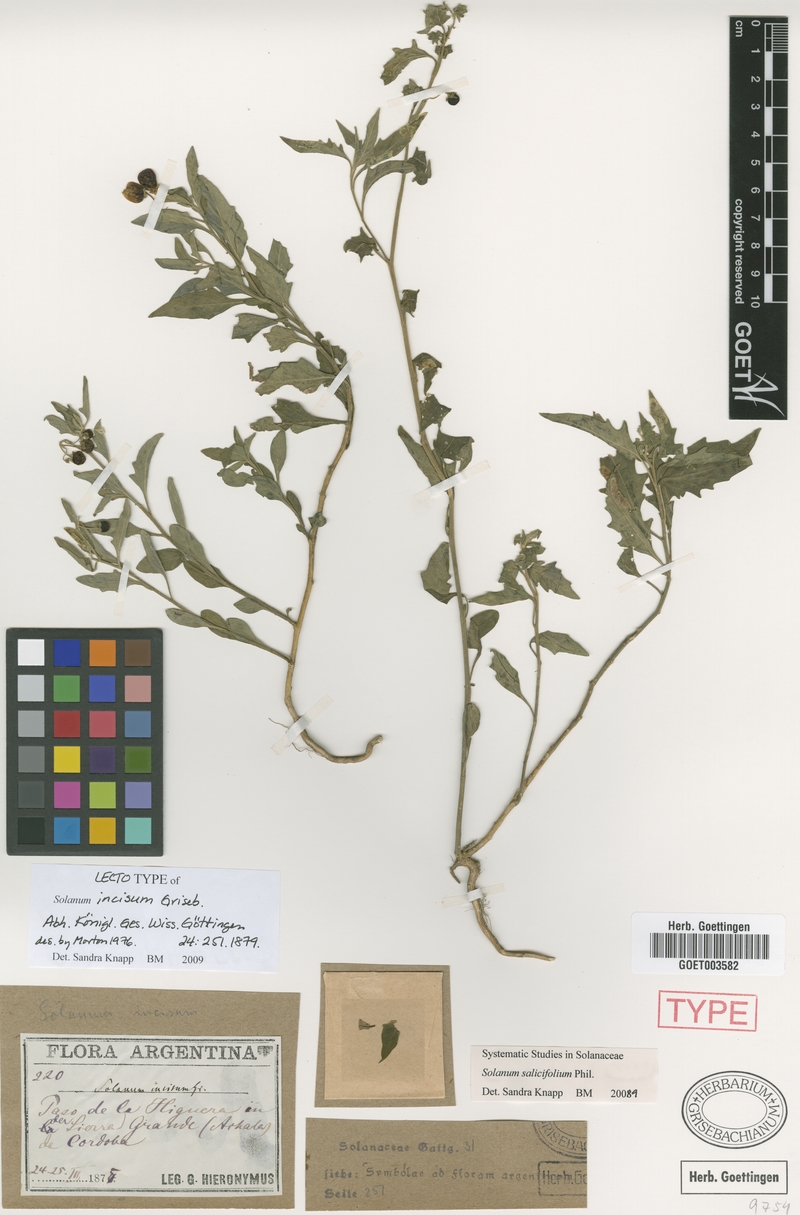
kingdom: Plantae
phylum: Tracheophyta
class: Magnoliopsida
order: Solanales
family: Solanaceae
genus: Solanum
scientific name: Solanum salicifolium
